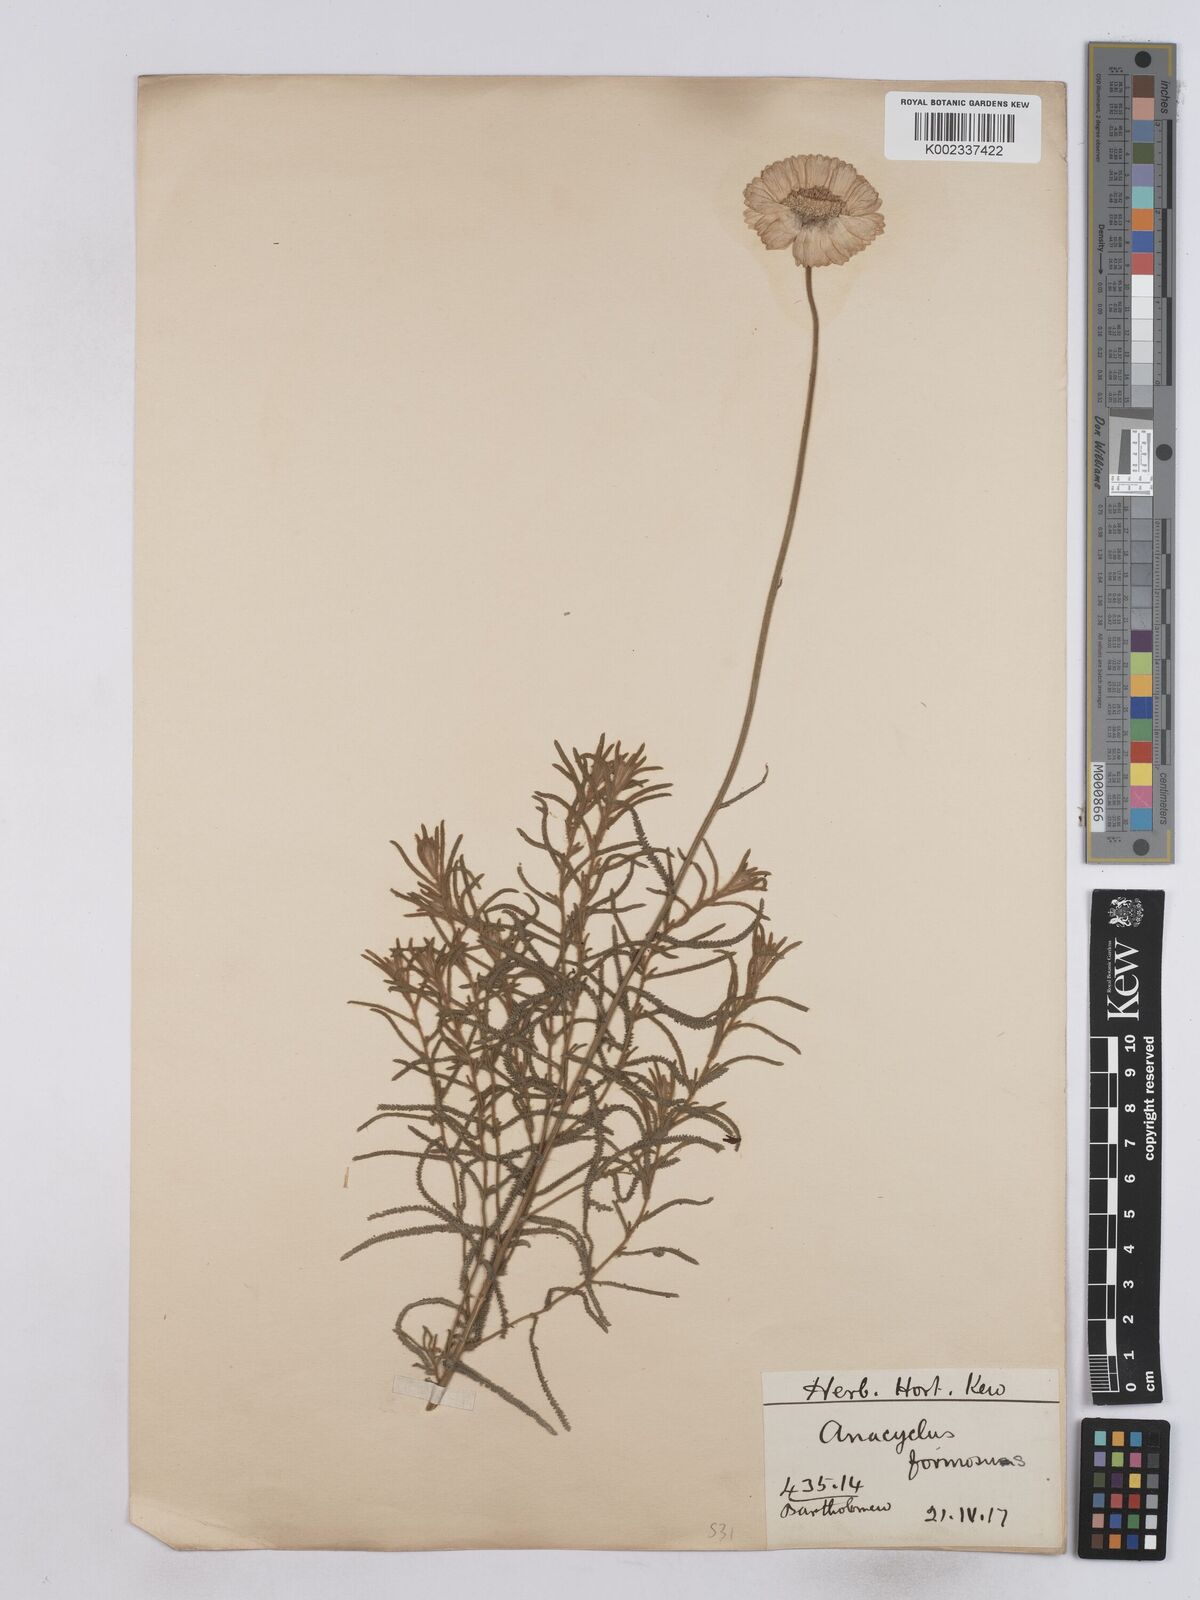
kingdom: Plantae
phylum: Tracheophyta
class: Magnoliopsida
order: Asterales
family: Asteraceae
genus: Achillea
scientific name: Achillea formosa
